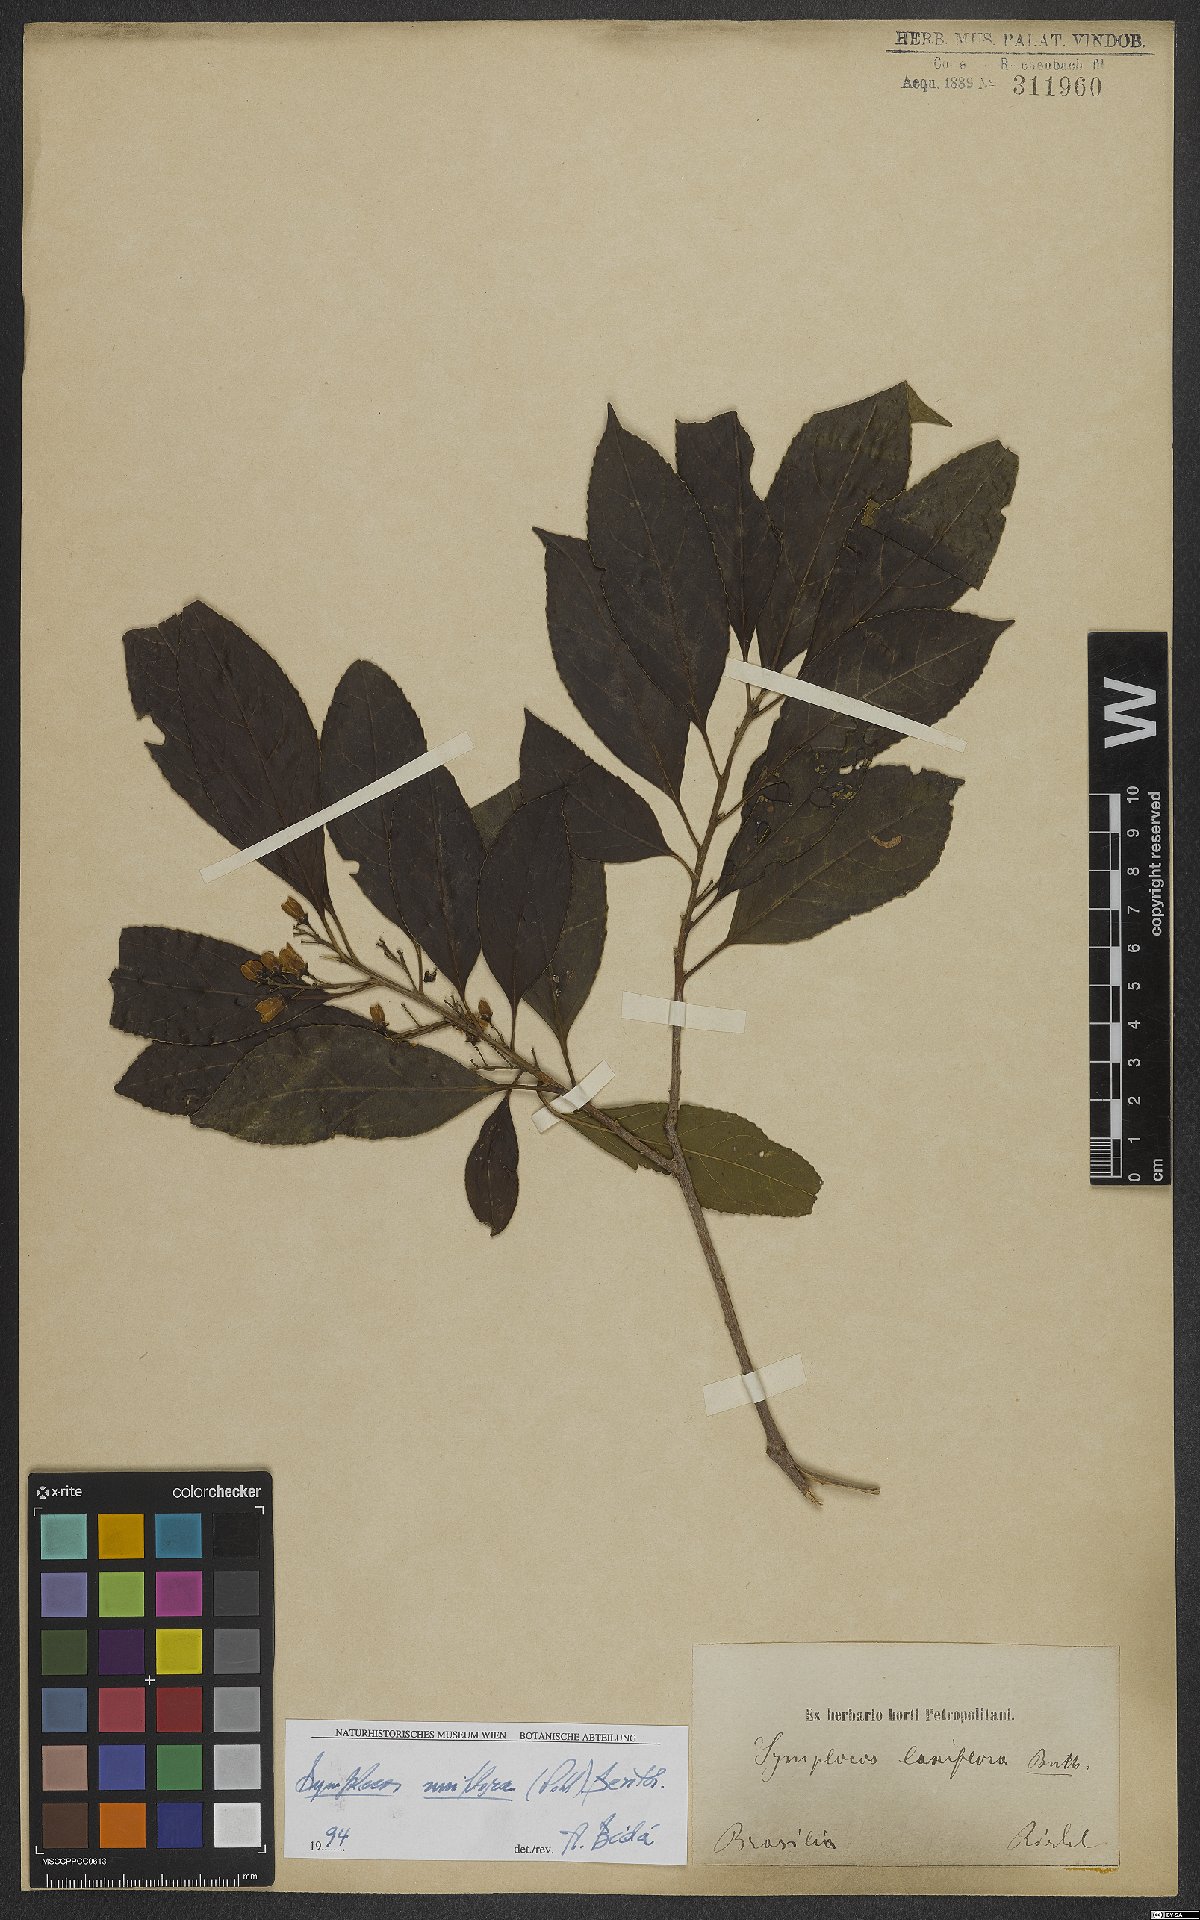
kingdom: Plantae
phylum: Tracheophyta
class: Magnoliopsida
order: Ericales
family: Symplocaceae
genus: Symplocos
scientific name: Symplocos uniflora
